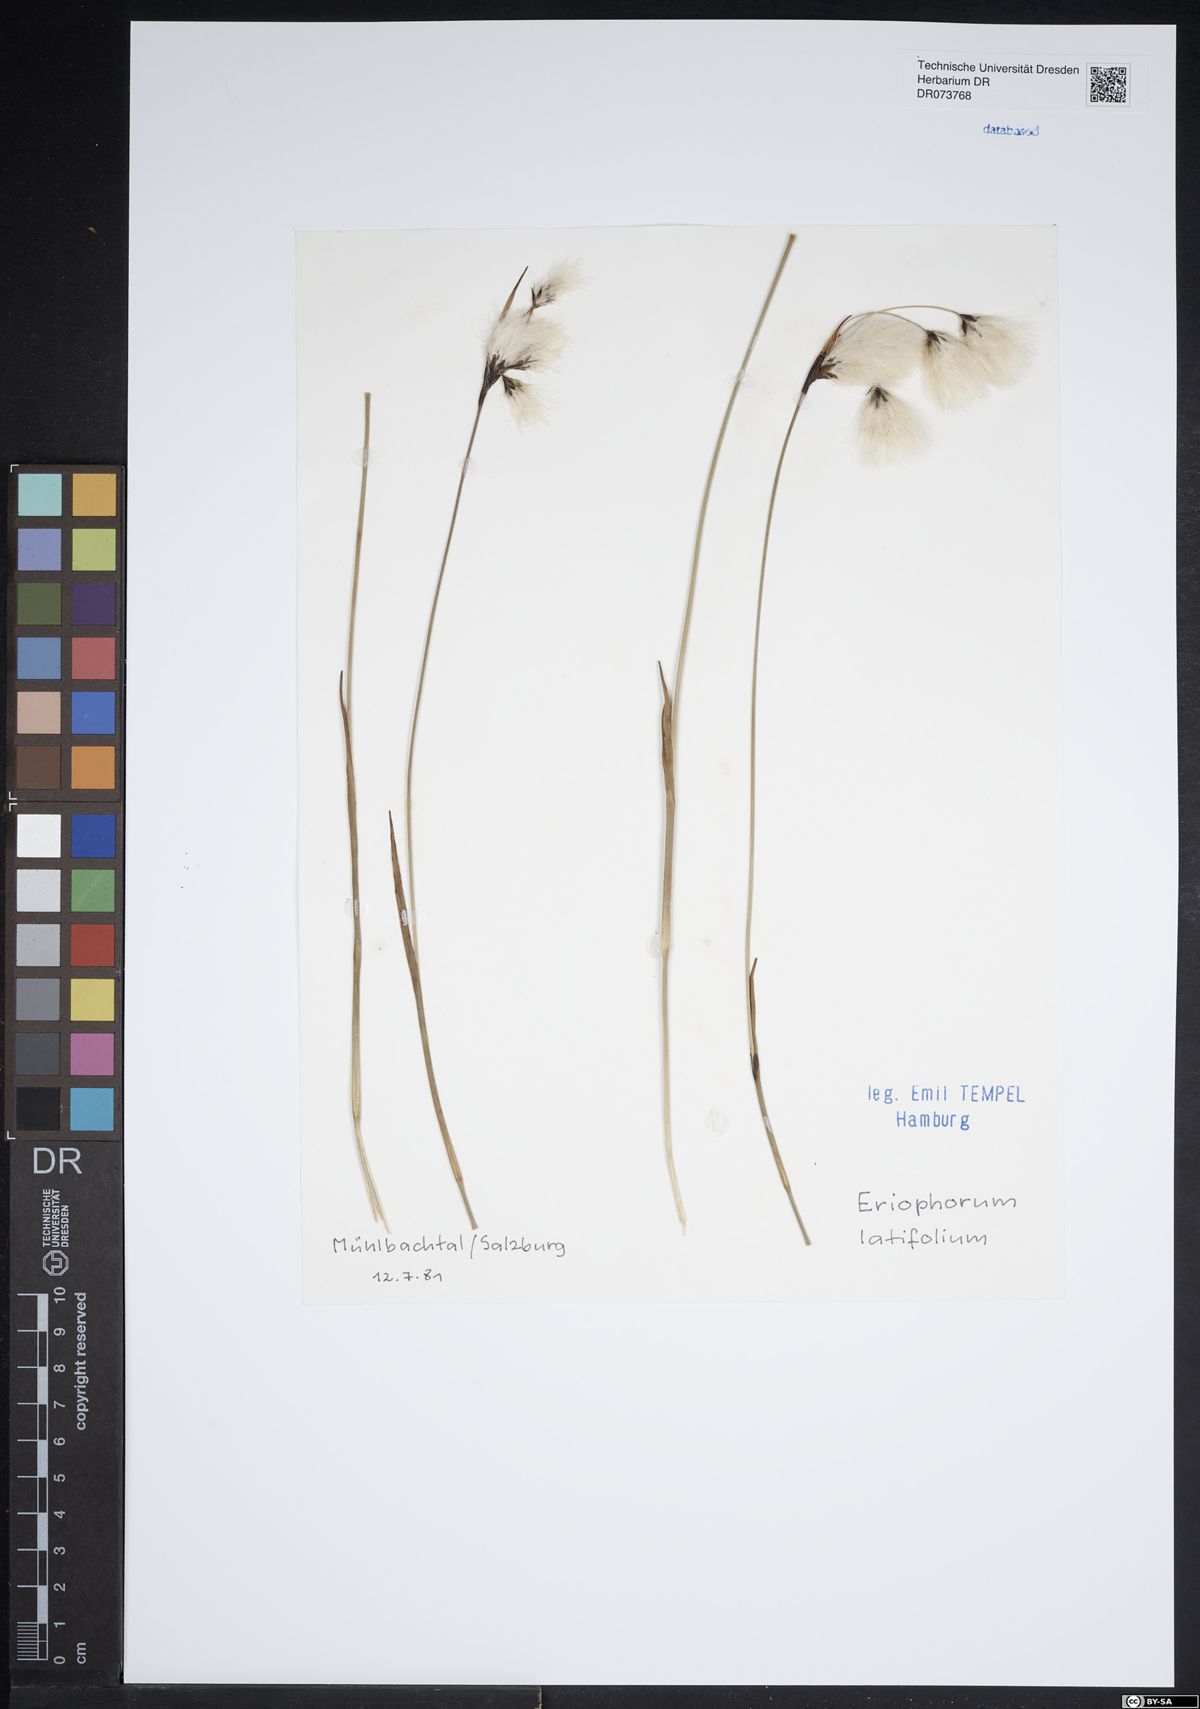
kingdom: Plantae
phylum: Tracheophyta
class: Liliopsida
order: Poales
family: Cyperaceae
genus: Eriophorum
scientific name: Eriophorum latifolium
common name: Broad-leaved cottongrass
